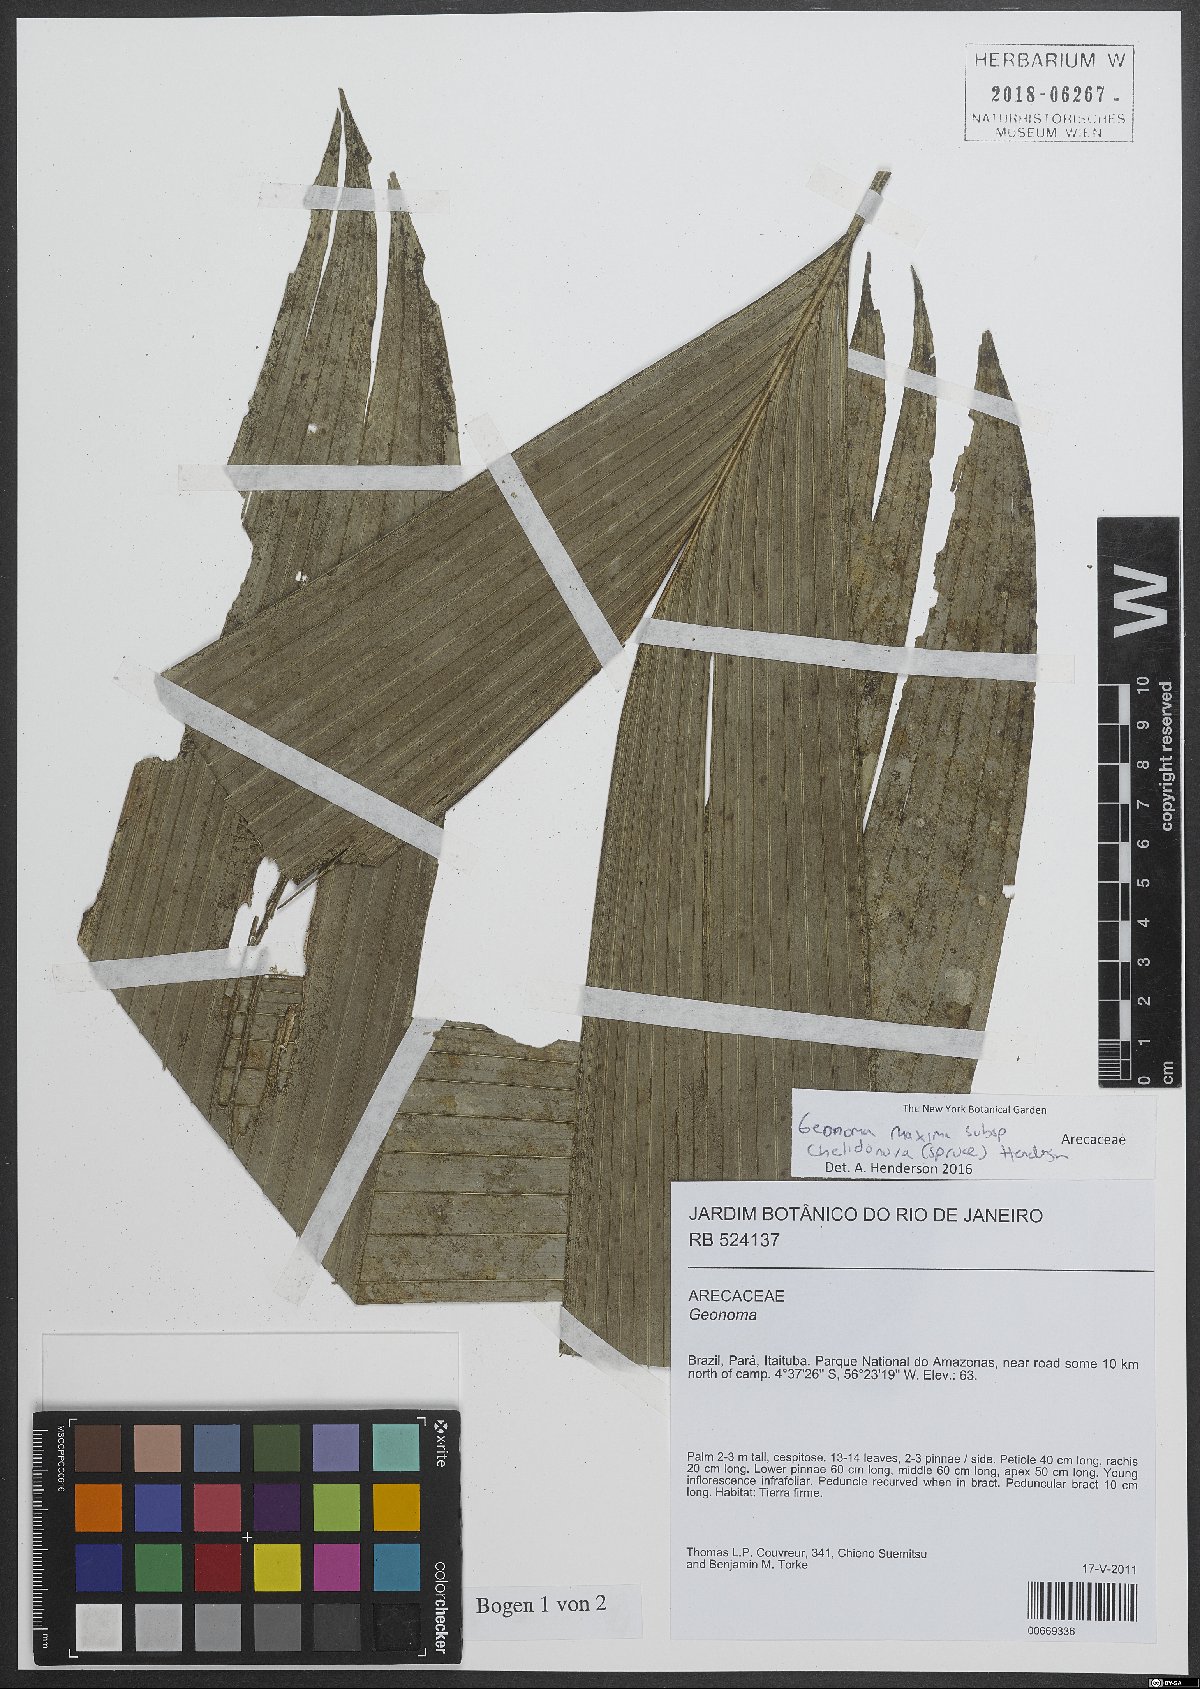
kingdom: Plantae
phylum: Tracheophyta
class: Liliopsida
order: Arecales
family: Arecaceae
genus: Geonoma
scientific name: Geonoma maxima
